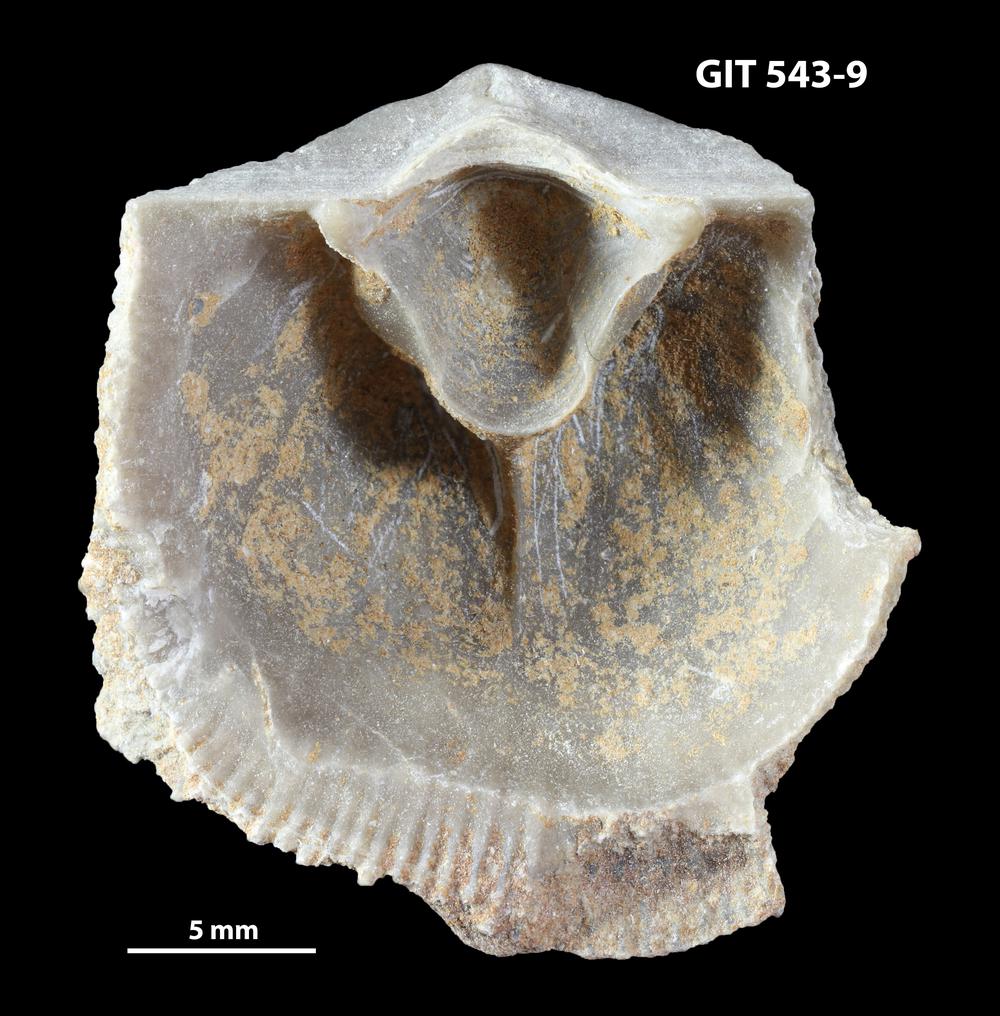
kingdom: Animalia
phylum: Brachiopoda
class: Rhynchonellata
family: Clitambonitidae
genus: Clitambonites
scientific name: Clitambonites
